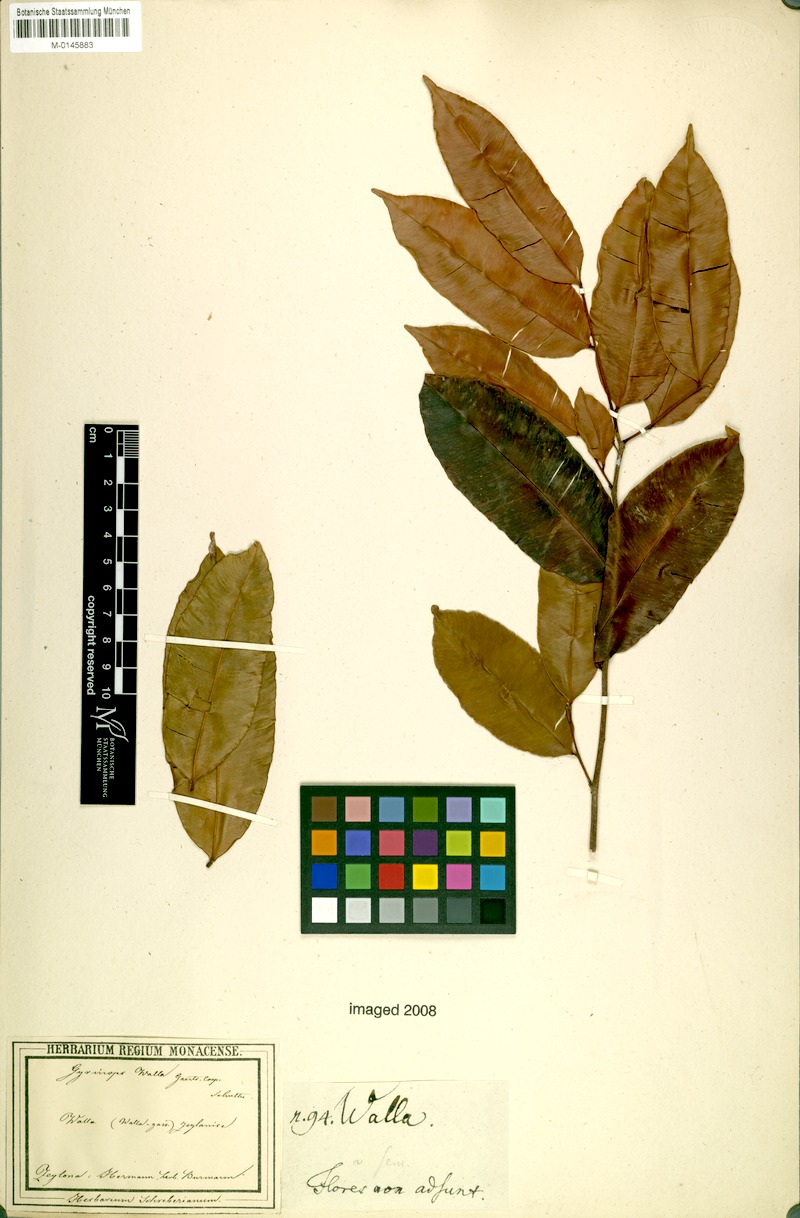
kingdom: Plantae
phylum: Tracheophyta
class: Magnoliopsida
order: Malvales
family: Thymelaeaceae
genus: Gyrinops
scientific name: Gyrinops walla
